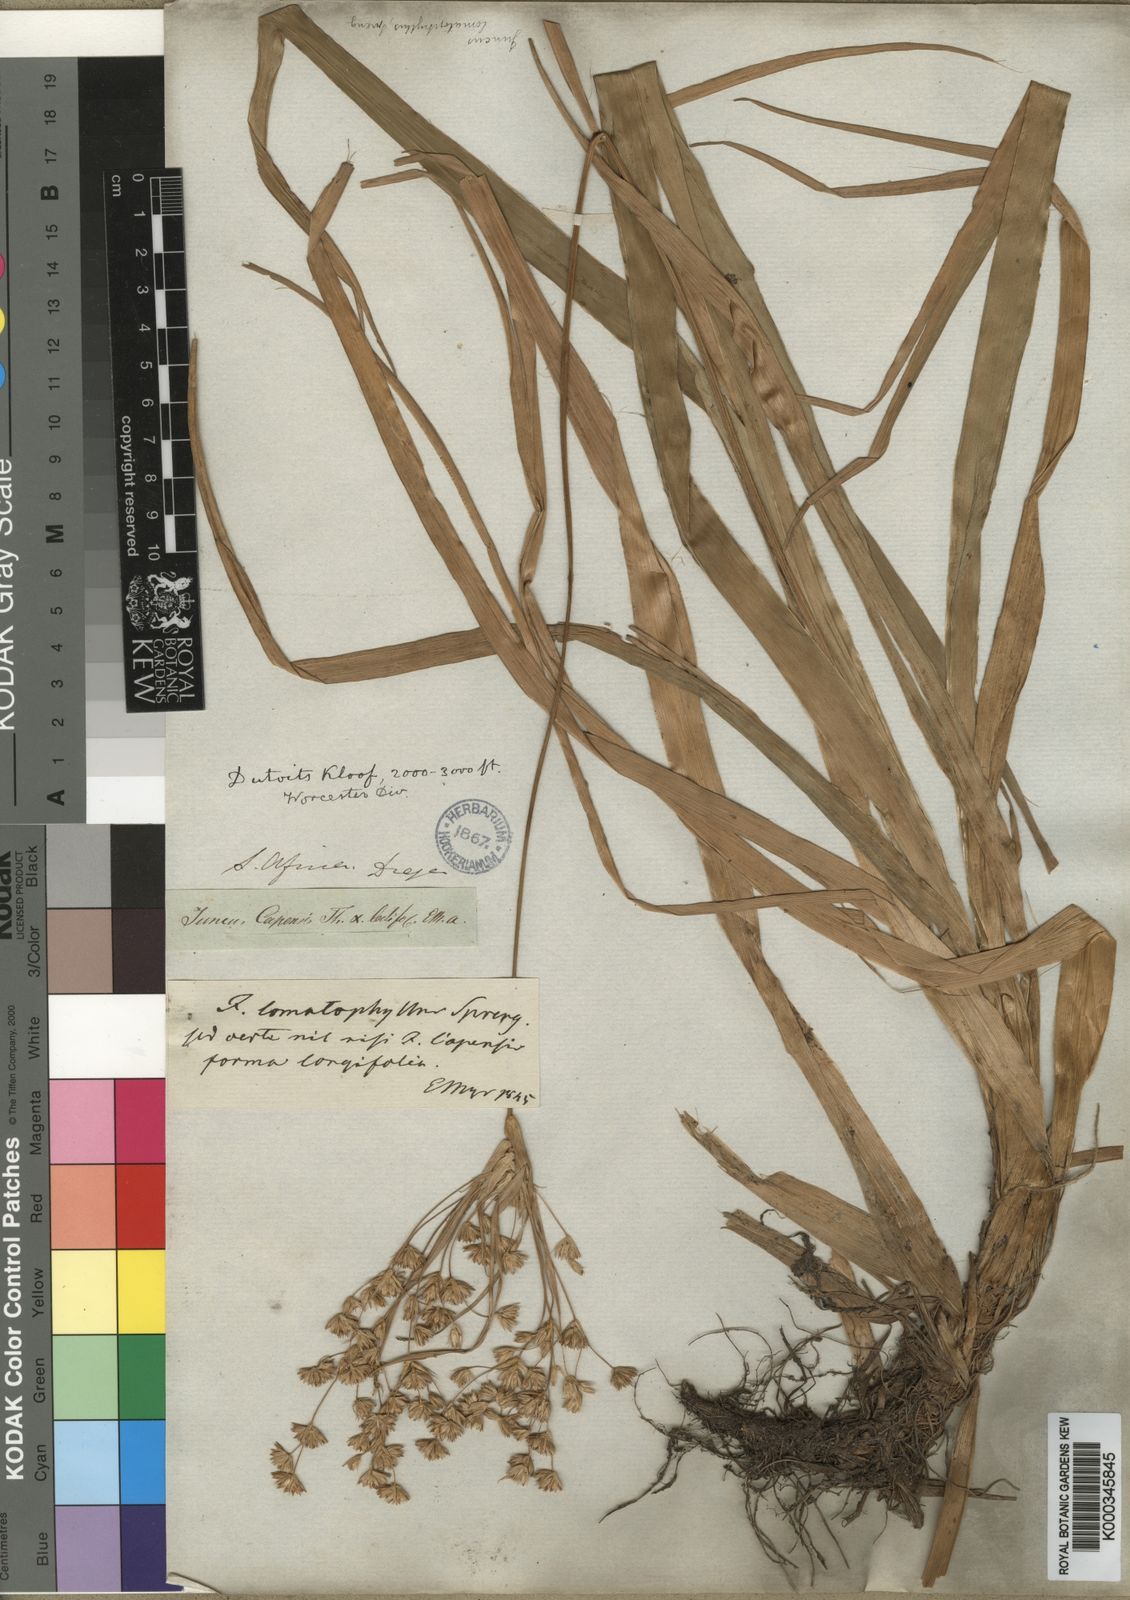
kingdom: Plantae
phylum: Tracheophyta
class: Liliopsida
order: Poales
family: Juncaceae
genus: Juncus
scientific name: Juncus lomatophyllus
